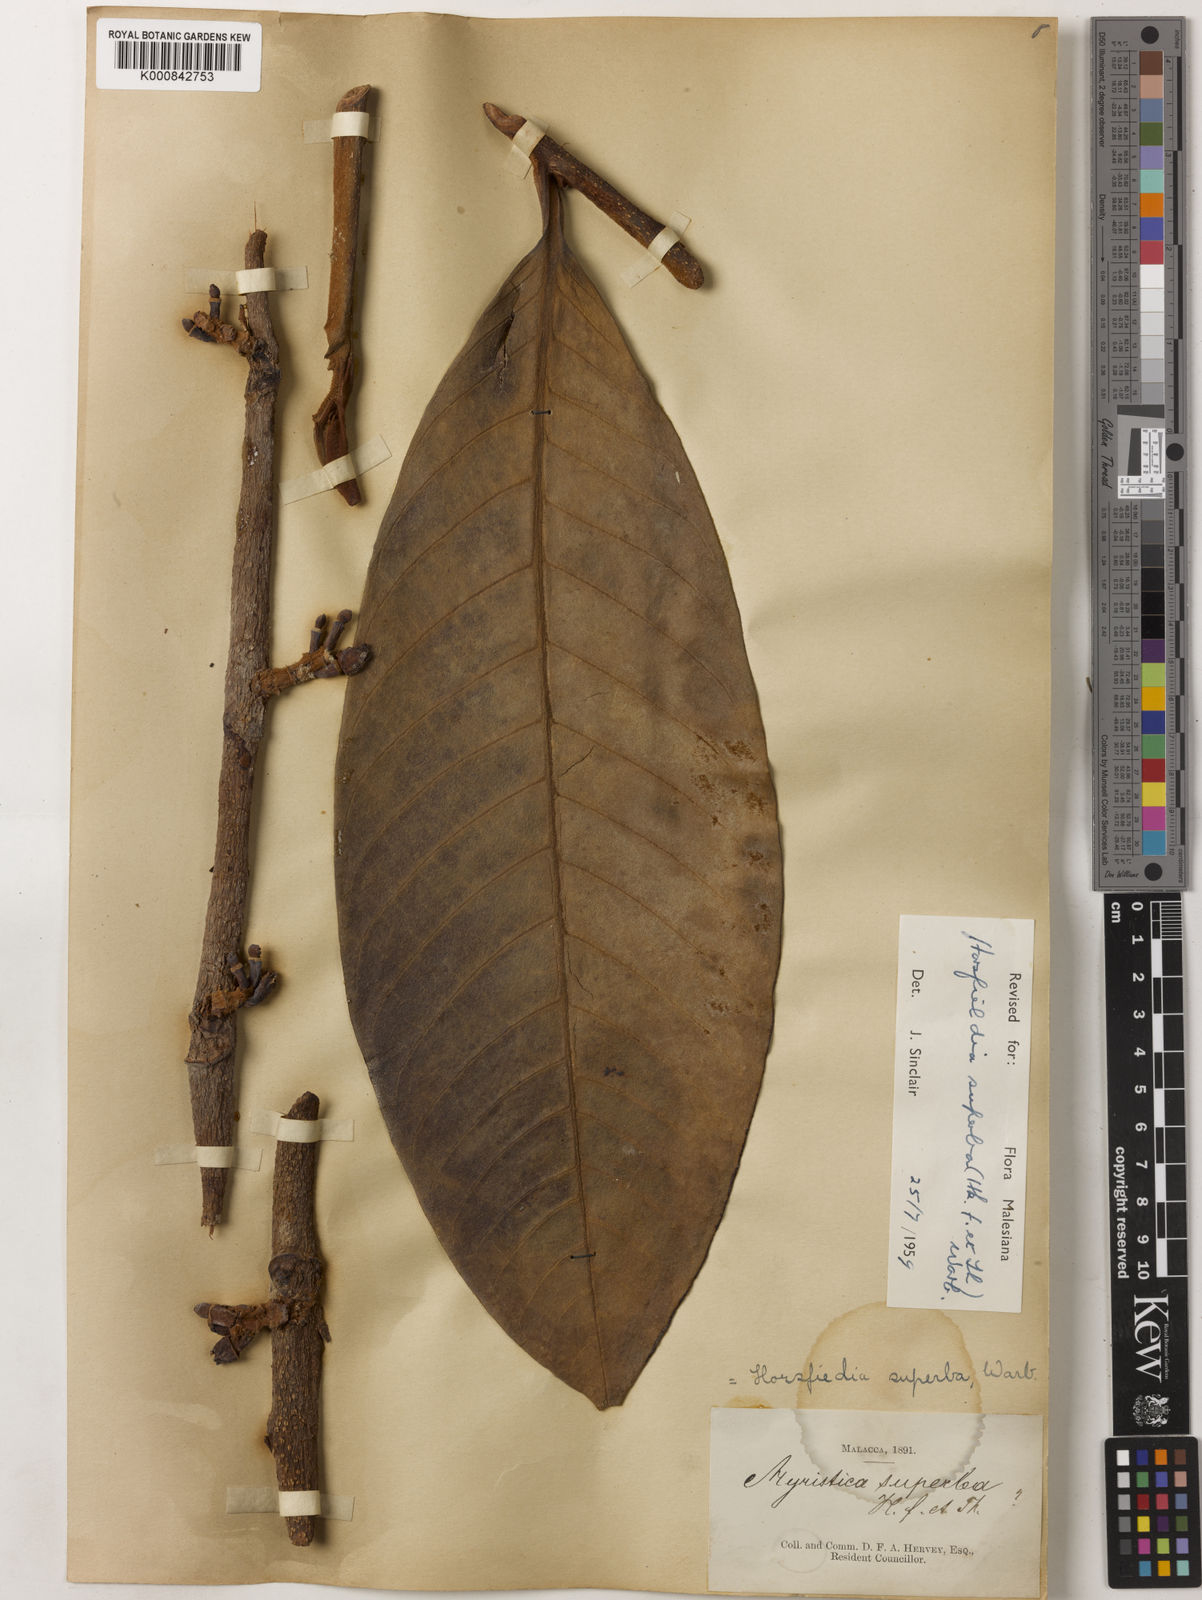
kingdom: Plantae
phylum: Tracheophyta
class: Magnoliopsida
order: Magnoliales
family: Myristicaceae
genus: Horsfieldia
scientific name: Horsfieldia superba
